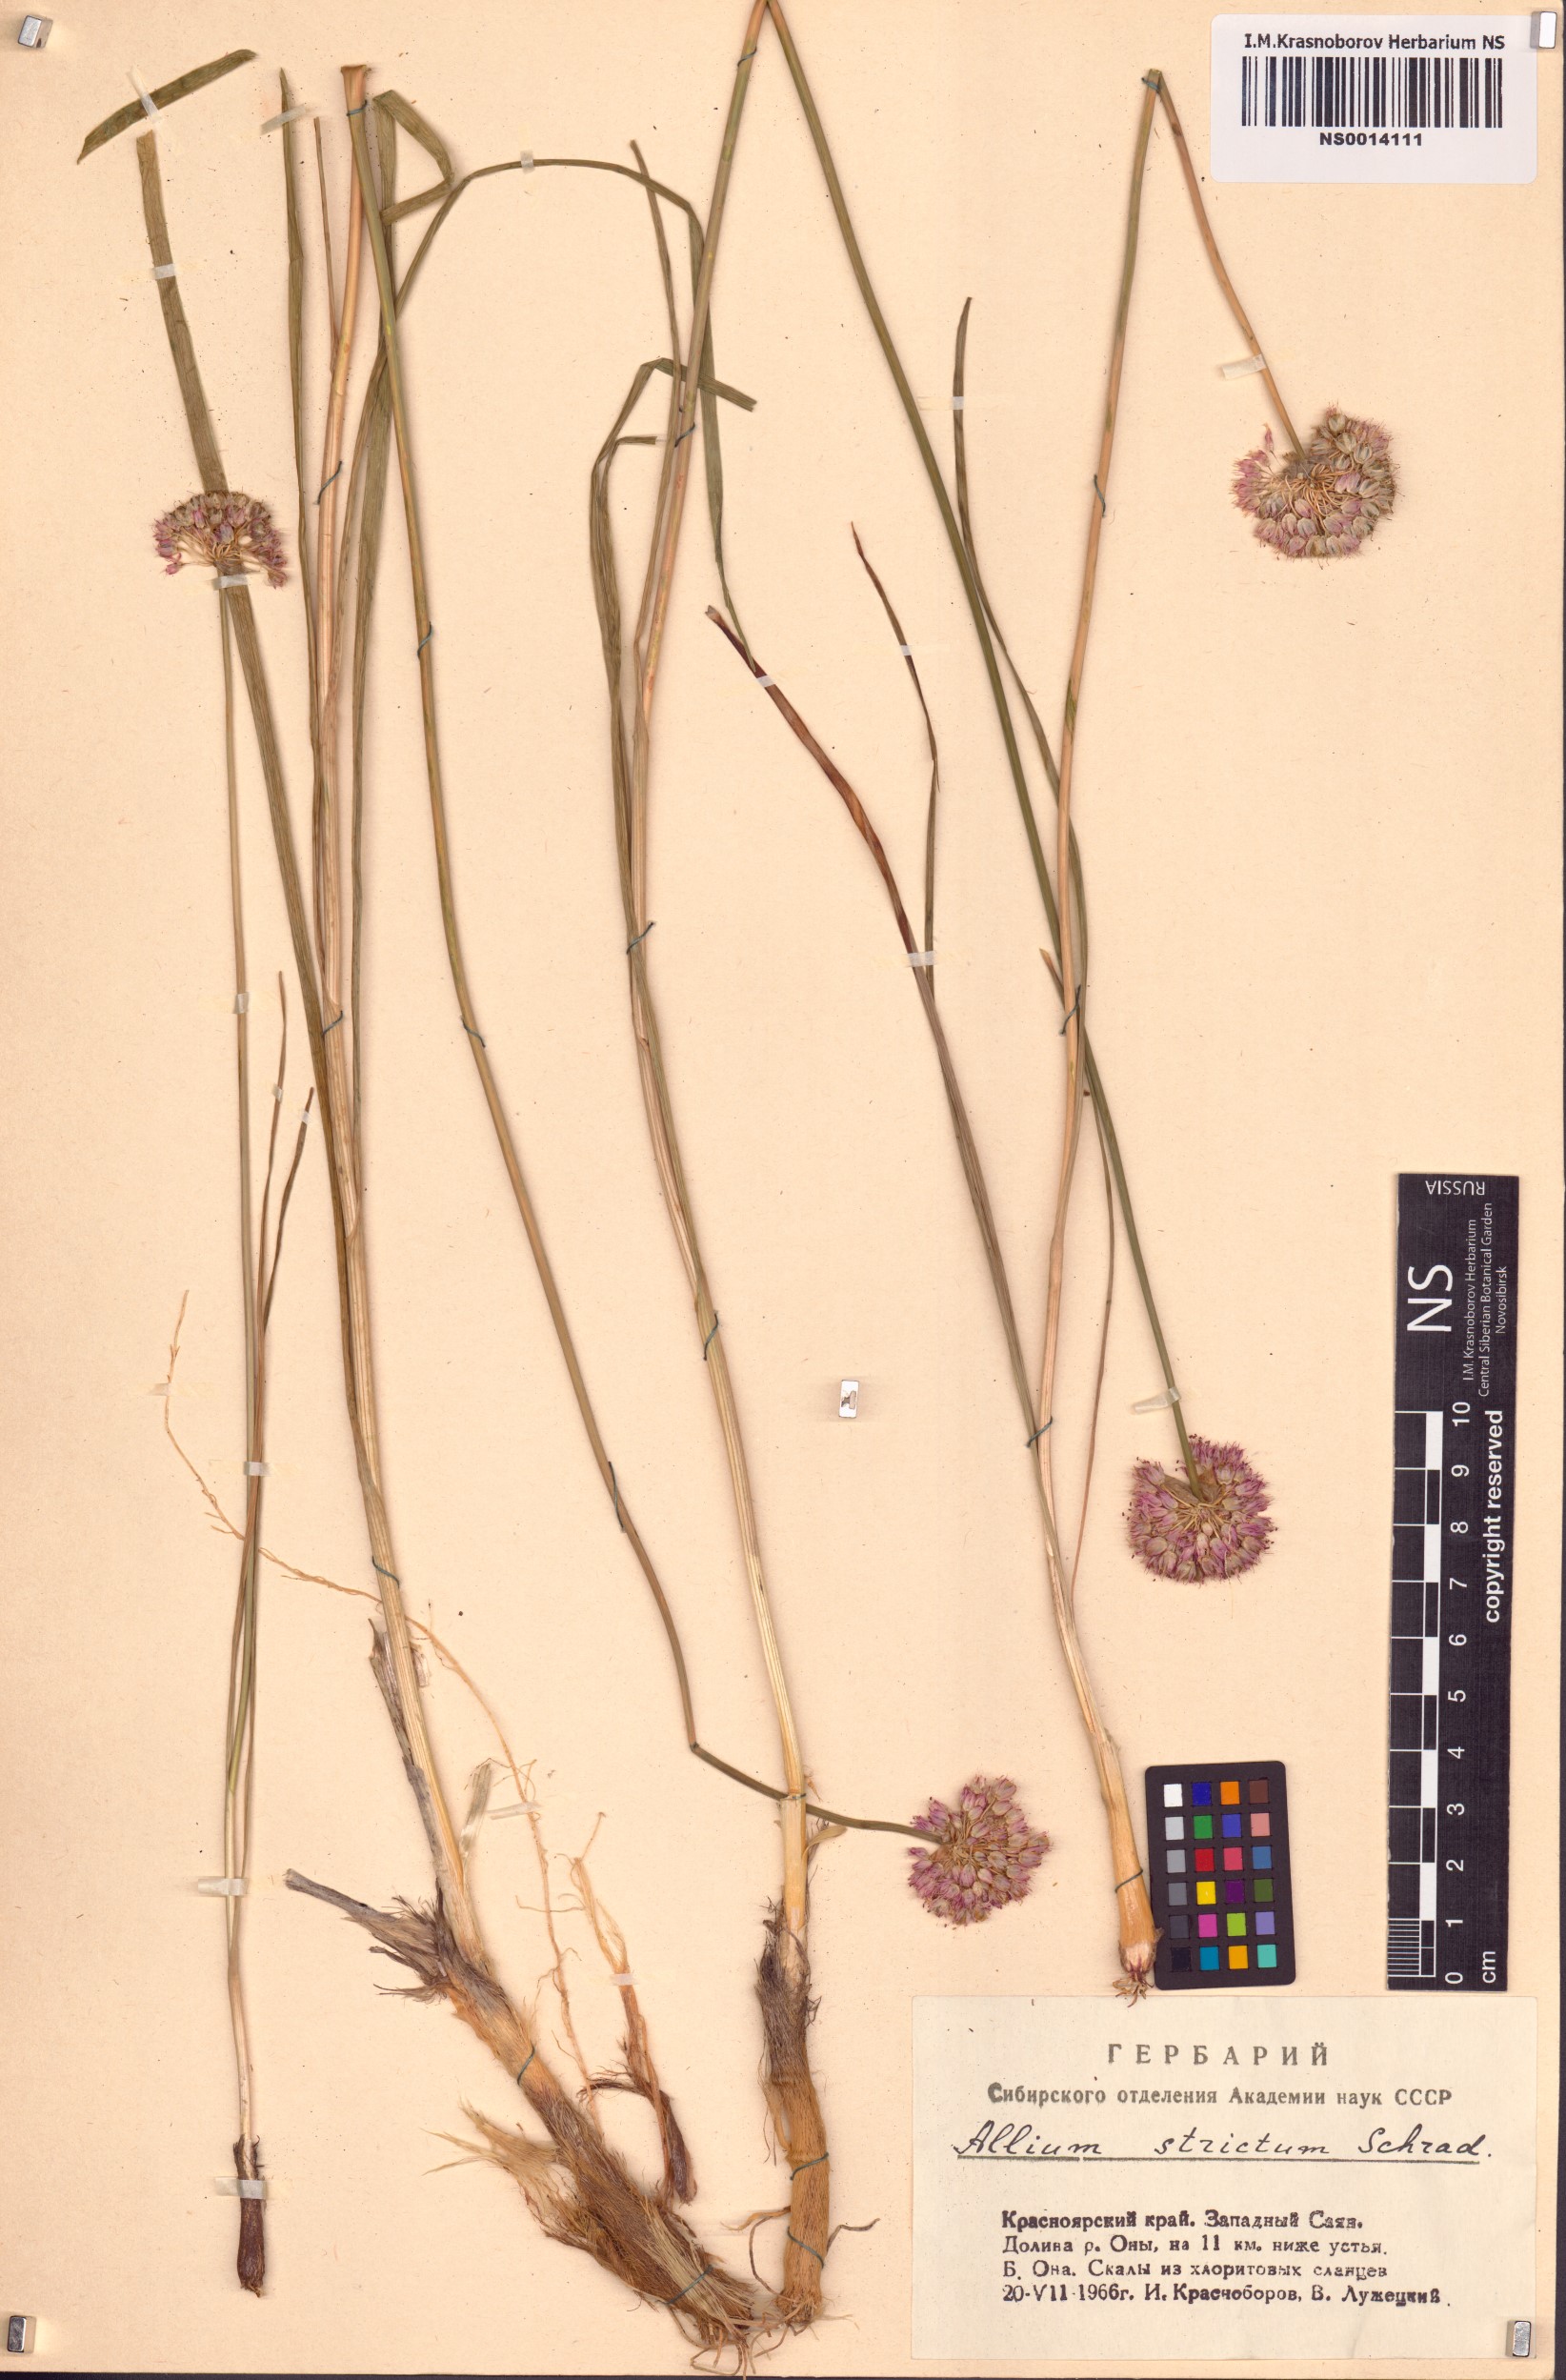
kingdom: Plantae
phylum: Tracheophyta
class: Liliopsida
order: Asparagales
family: Amaryllidaceae
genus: Allium
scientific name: Allium strictum
